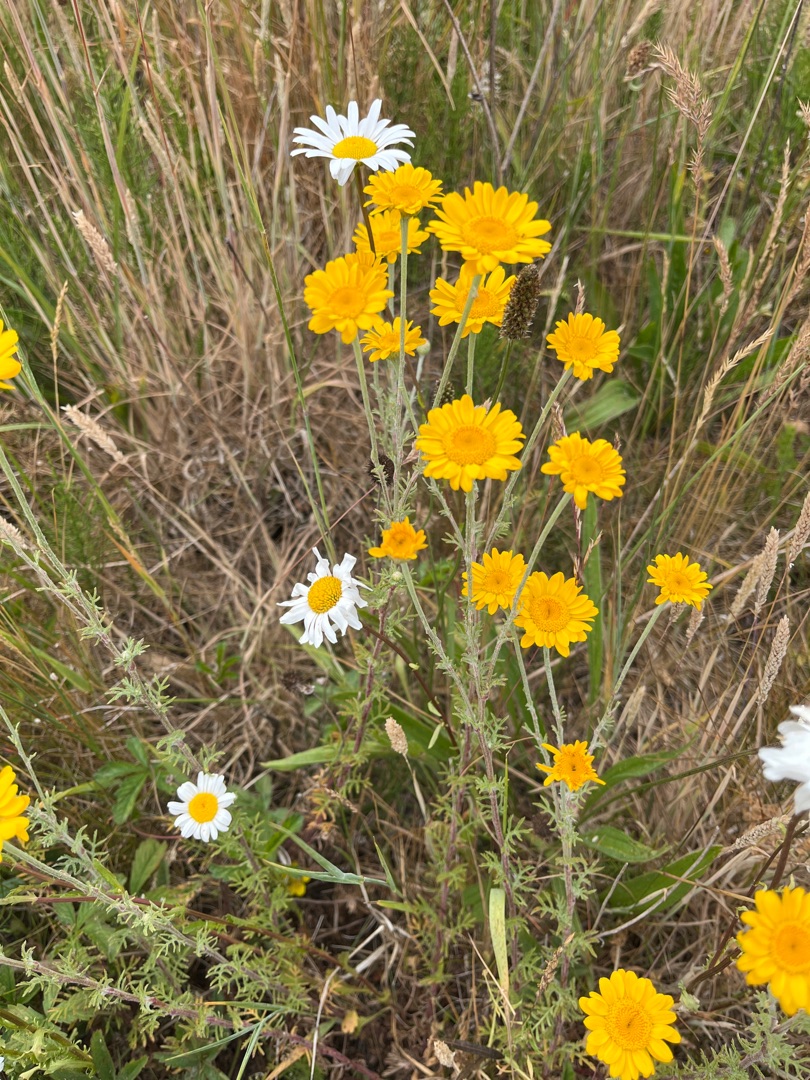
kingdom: Plantae
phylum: Tracheophyta
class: Magnoliopsida
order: Asterales
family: Asteraceae
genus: Cota
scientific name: Cota tinctoria
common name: Farve-gåseurt
